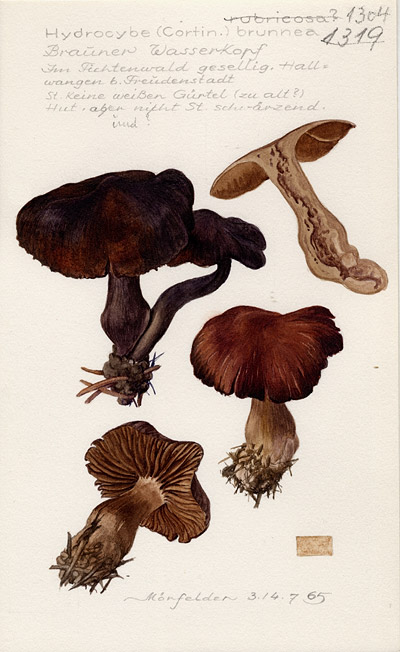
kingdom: Fungi
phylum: Basidiomycota
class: Agaricomycetes
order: Agaricales
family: Cortinariaceae
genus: Cortinarius
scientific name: Cortinarius brunneus
